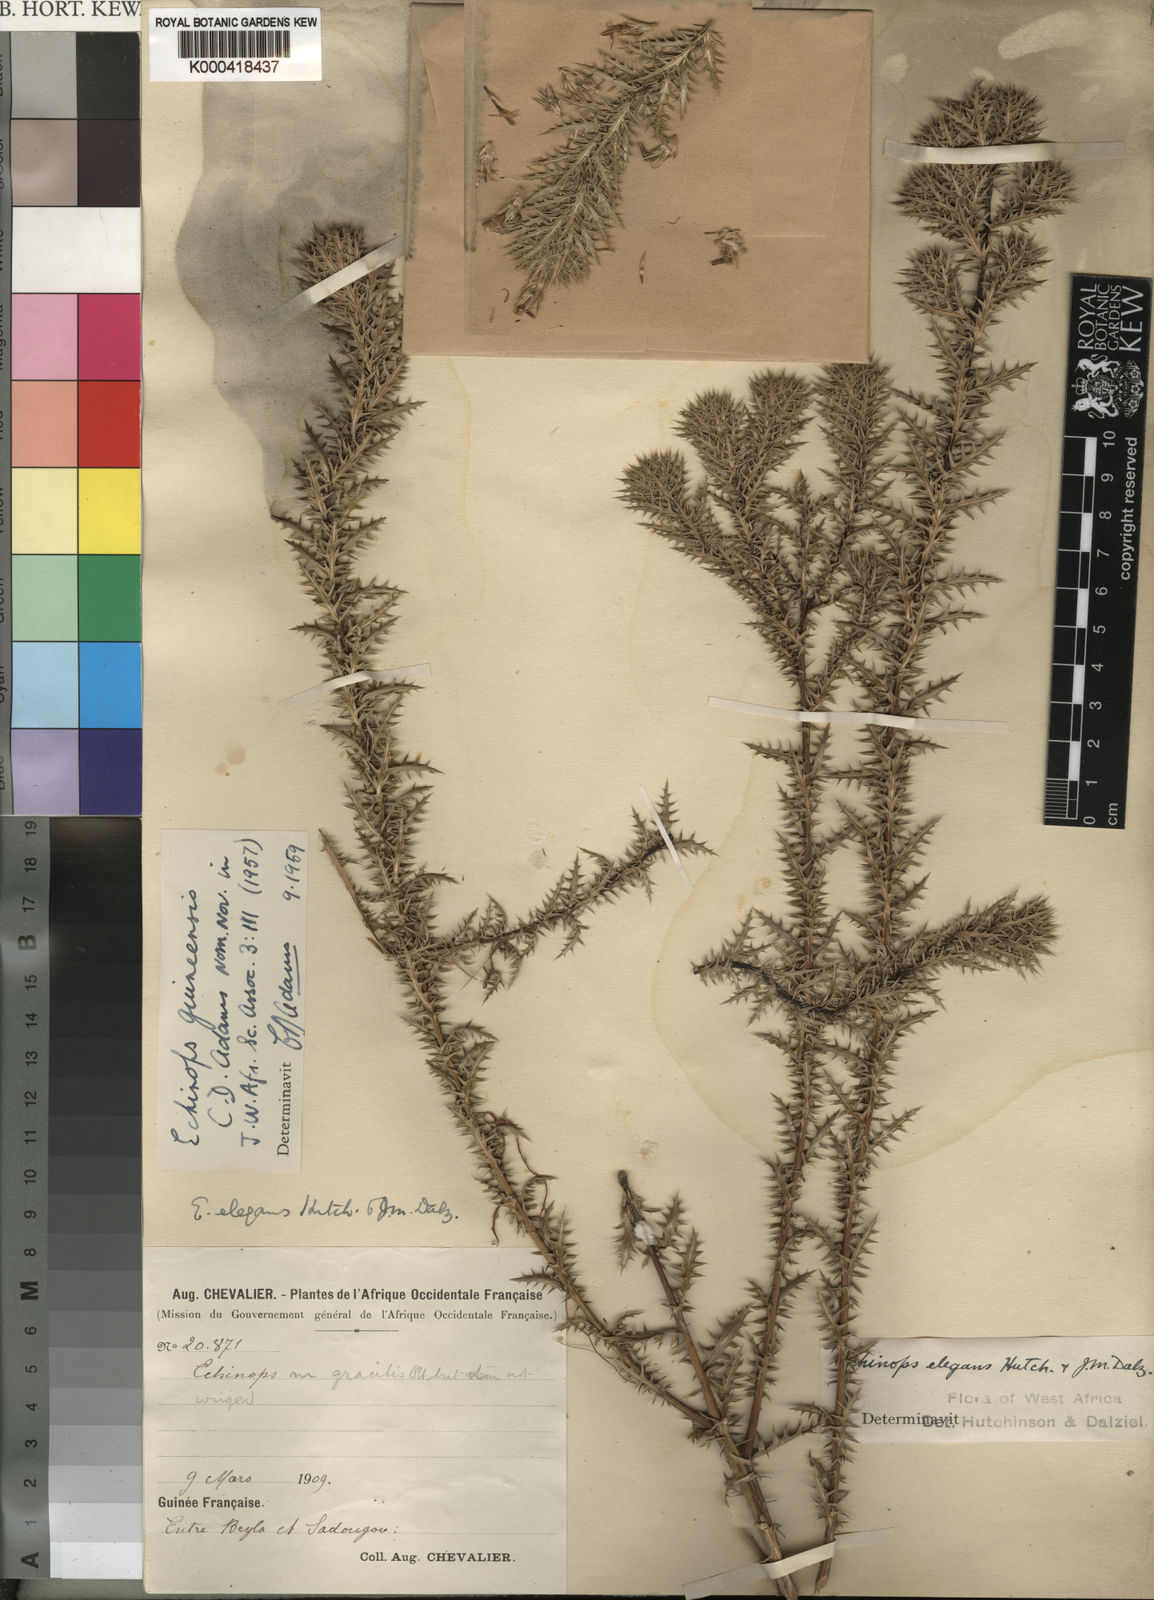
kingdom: Plantae
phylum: Tracheophyta
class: Magnoliopsida
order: Asterales
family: Asteraceae
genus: Echinops
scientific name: Echinops guineensis
